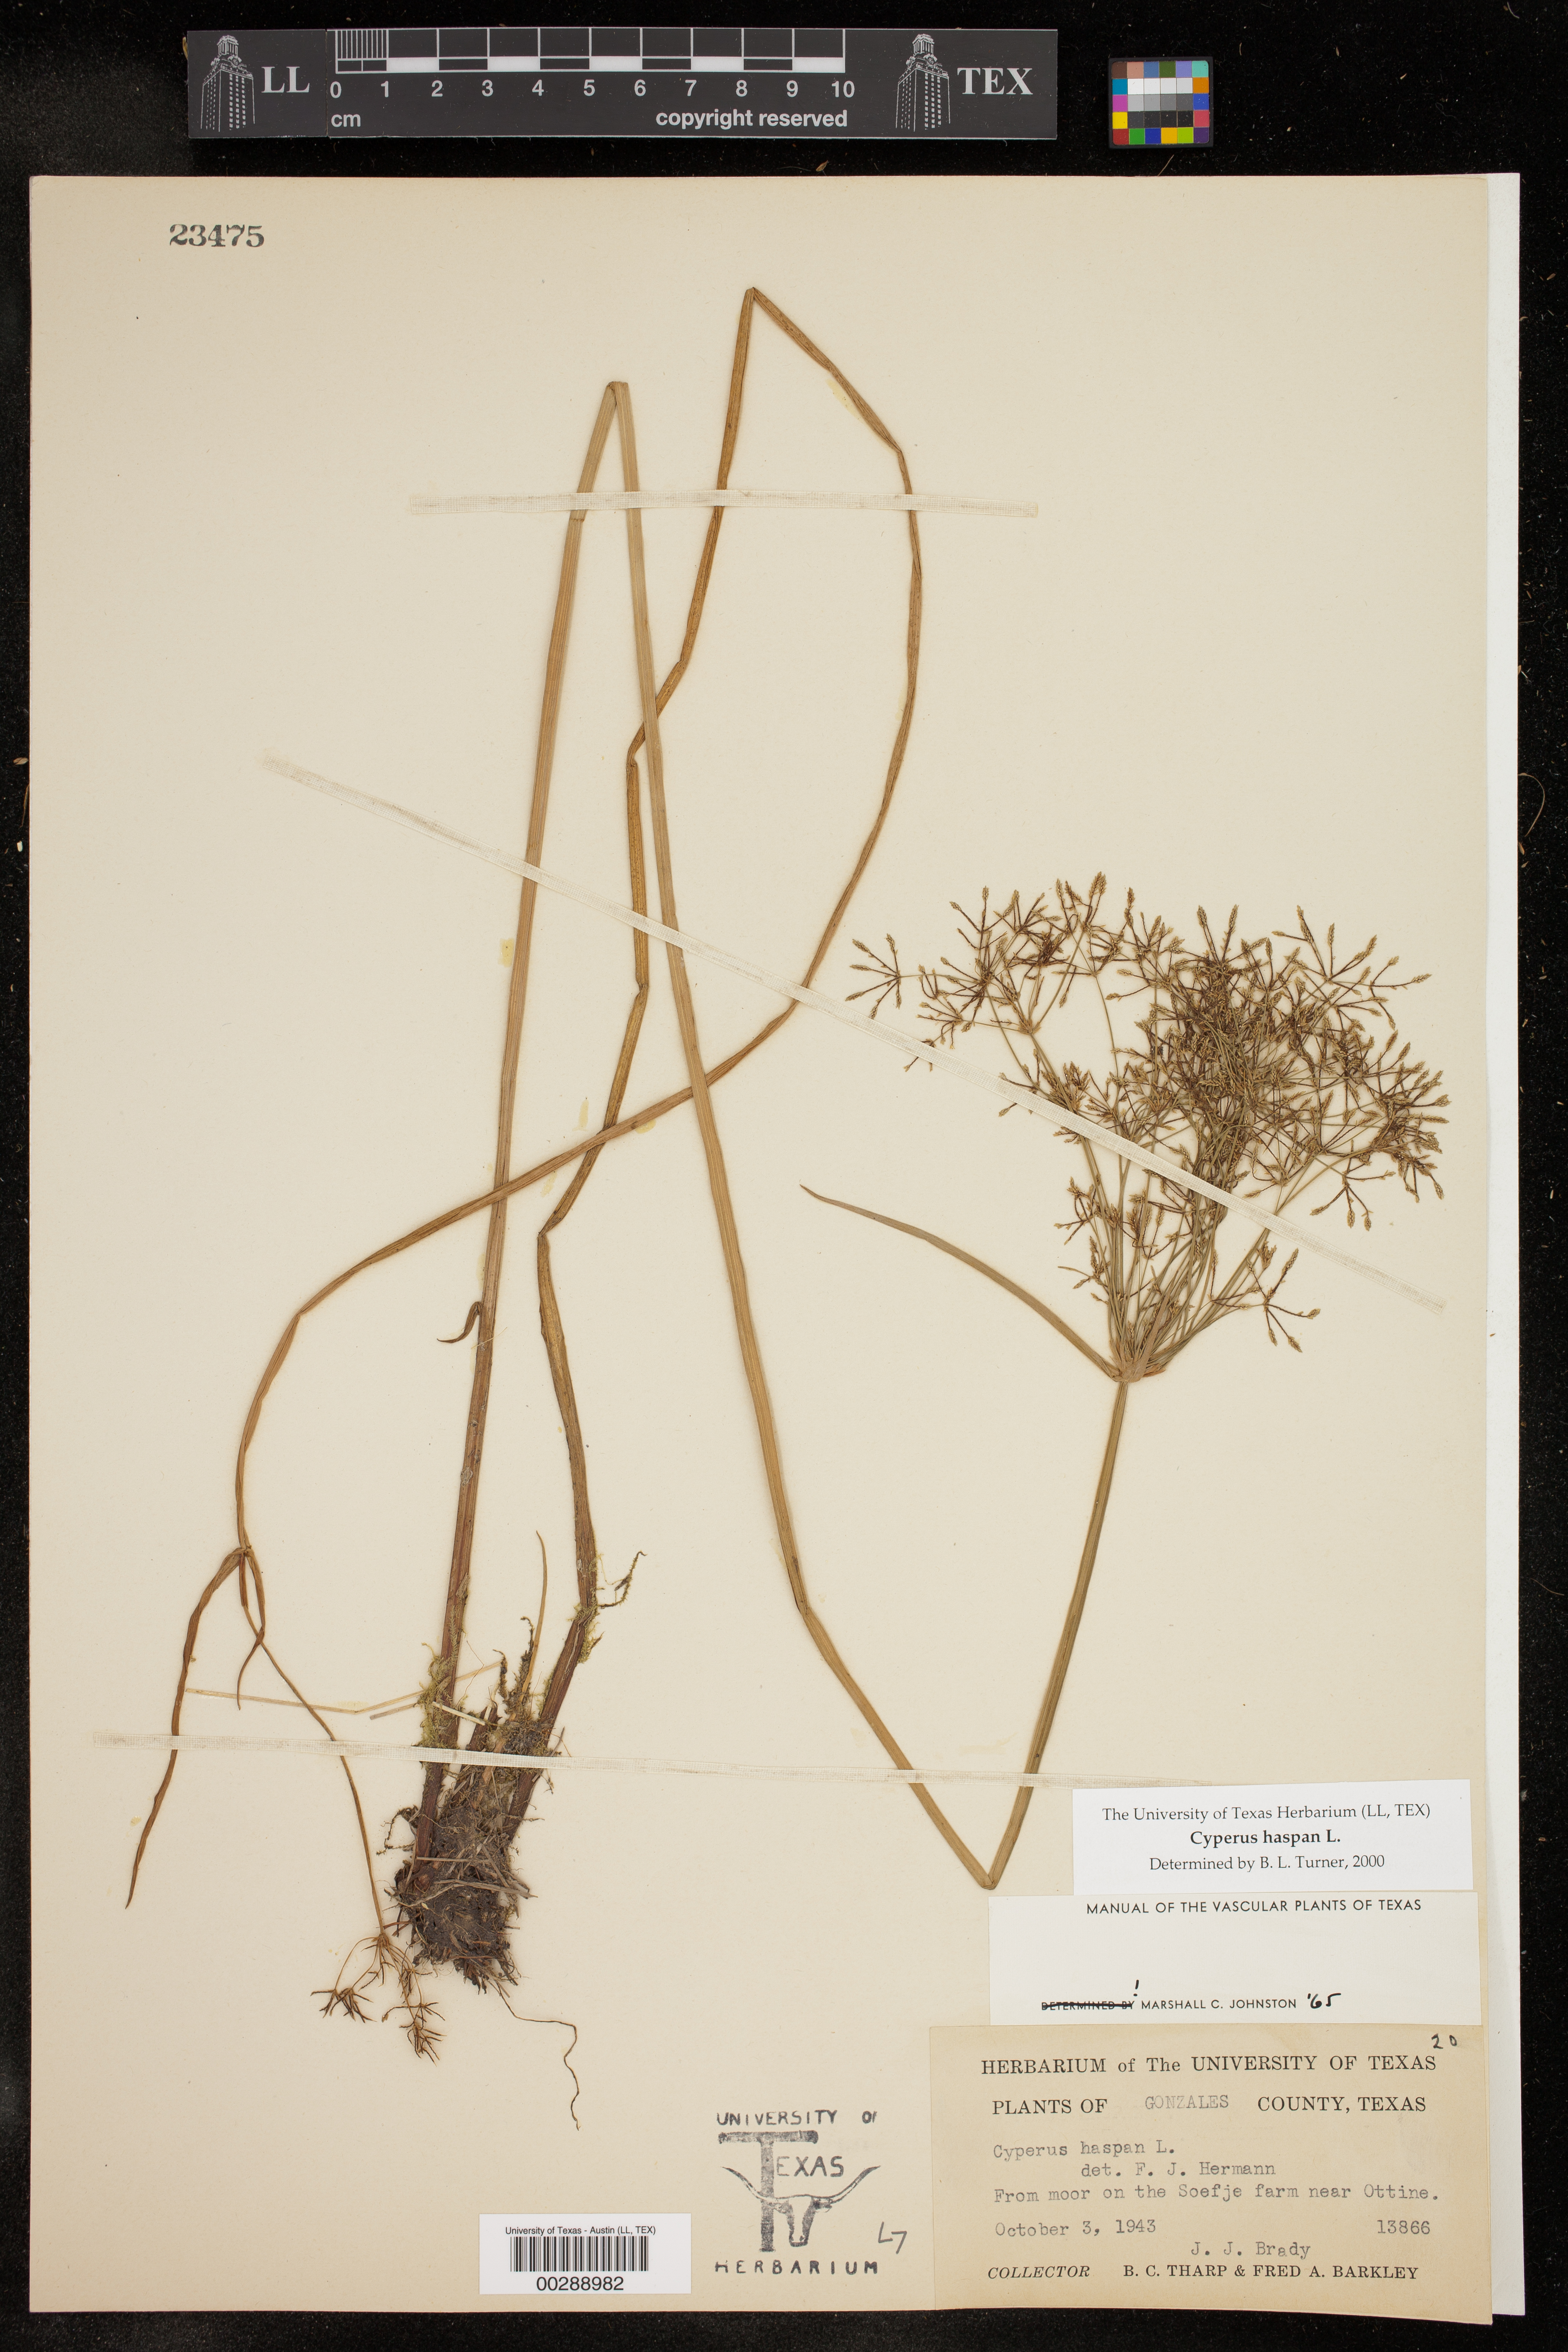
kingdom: Plantae
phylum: Tracheophyta
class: Liliopsida
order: Poales
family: Cyperaceae
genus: Cyperus
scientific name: Cyperus haspan
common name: Haspan flatsedge
